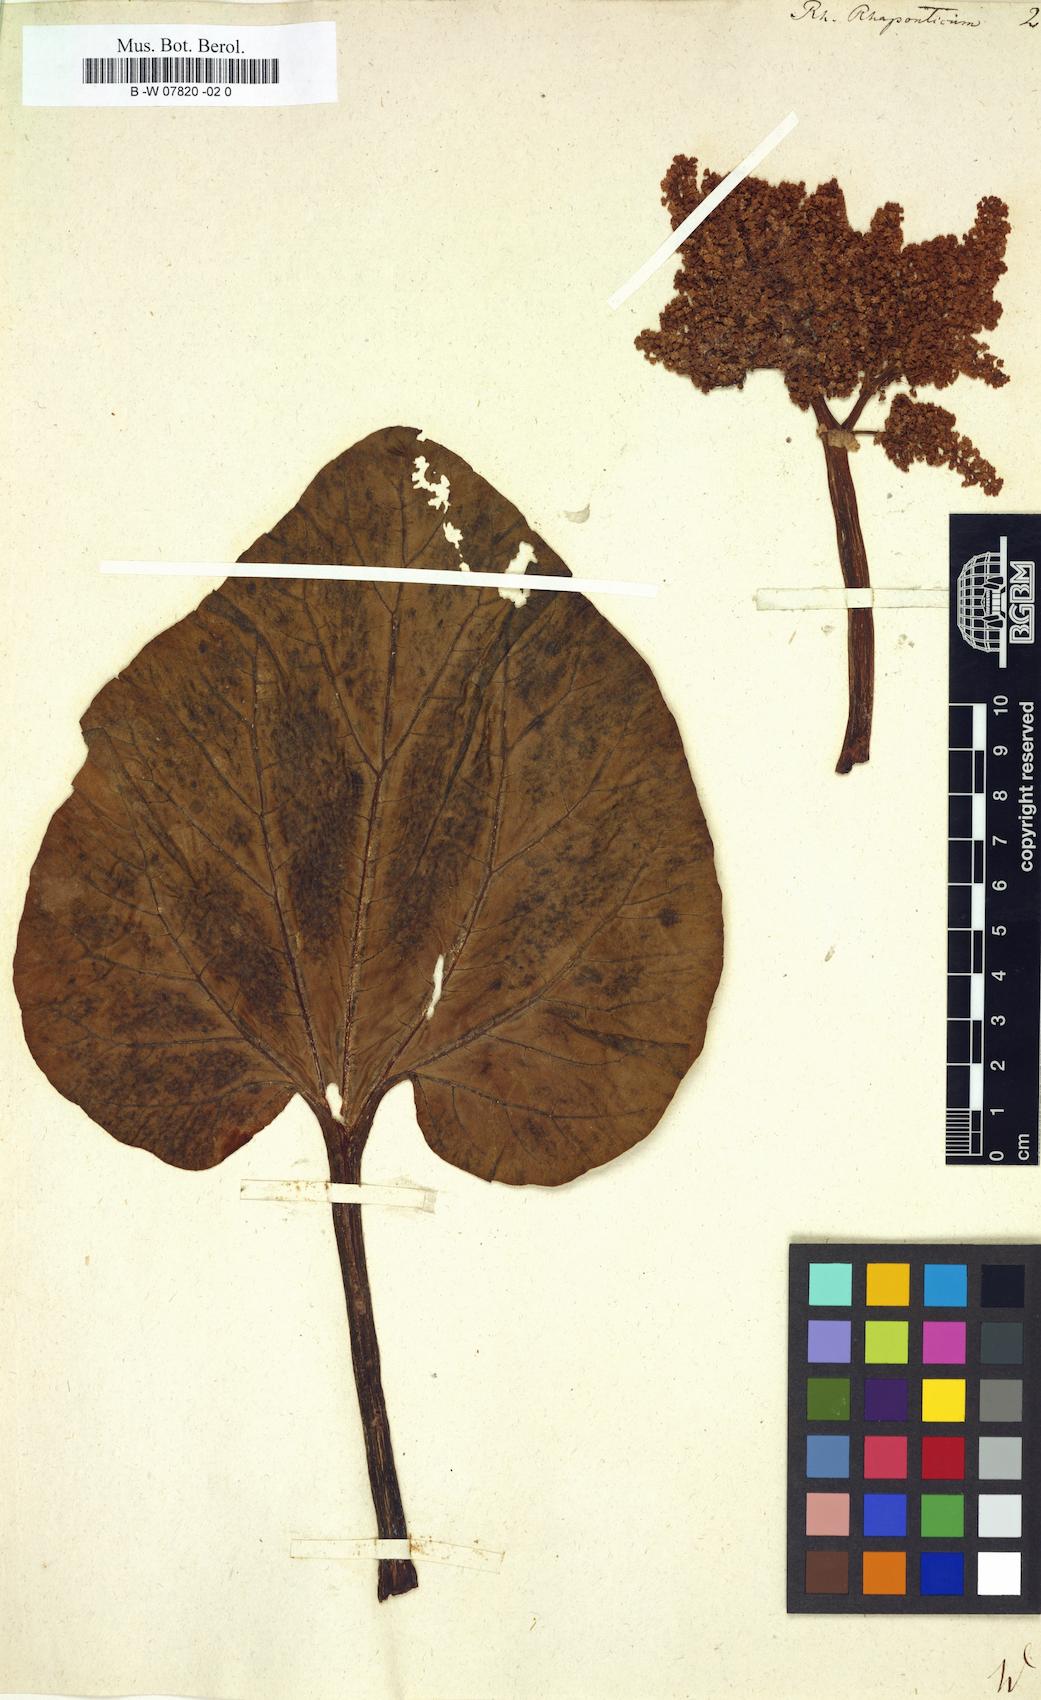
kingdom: Plantae
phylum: Tracheophyta
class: Magnoliopsida
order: Caryophyllales
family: Polygonaceae
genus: Rheum
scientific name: Rheum rhaponticum
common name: Rhubarb
